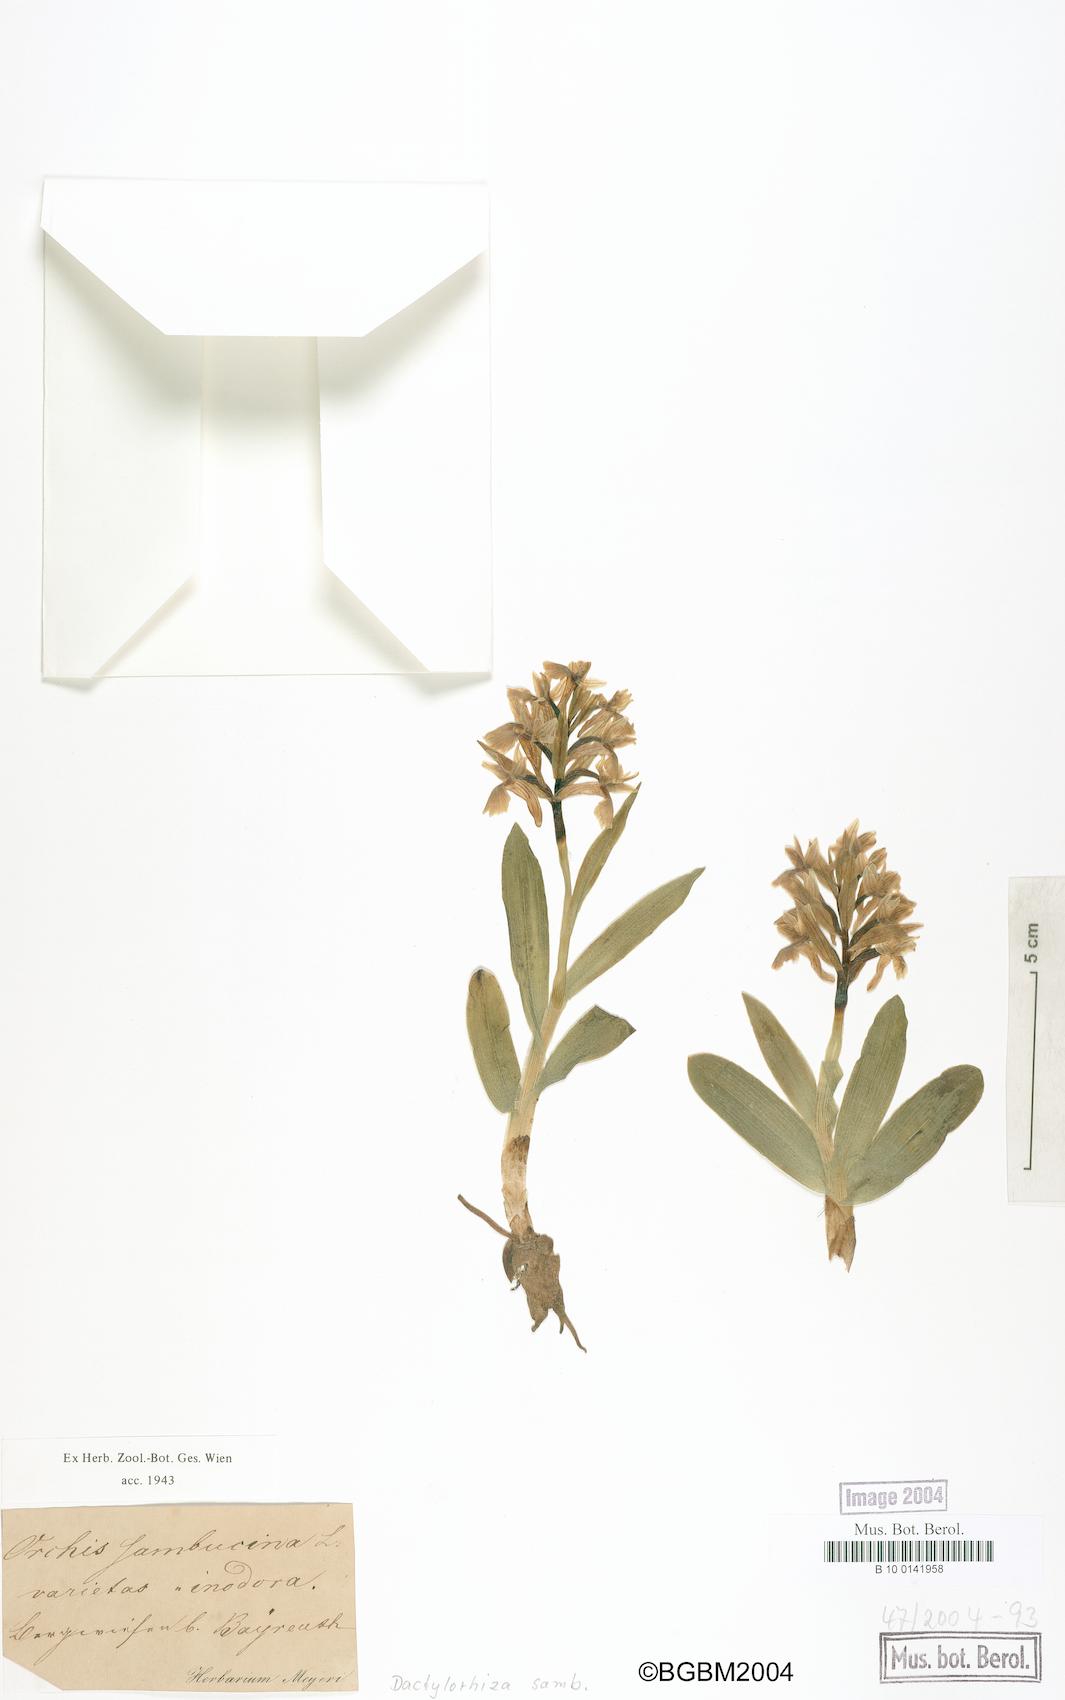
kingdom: Plantae
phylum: Tracheophyta
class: Liliopsida
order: Asparagales
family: Orchidaceae
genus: Dactylorhiza
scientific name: Dactylorhiza sambucina
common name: Elder-flowered orchid
